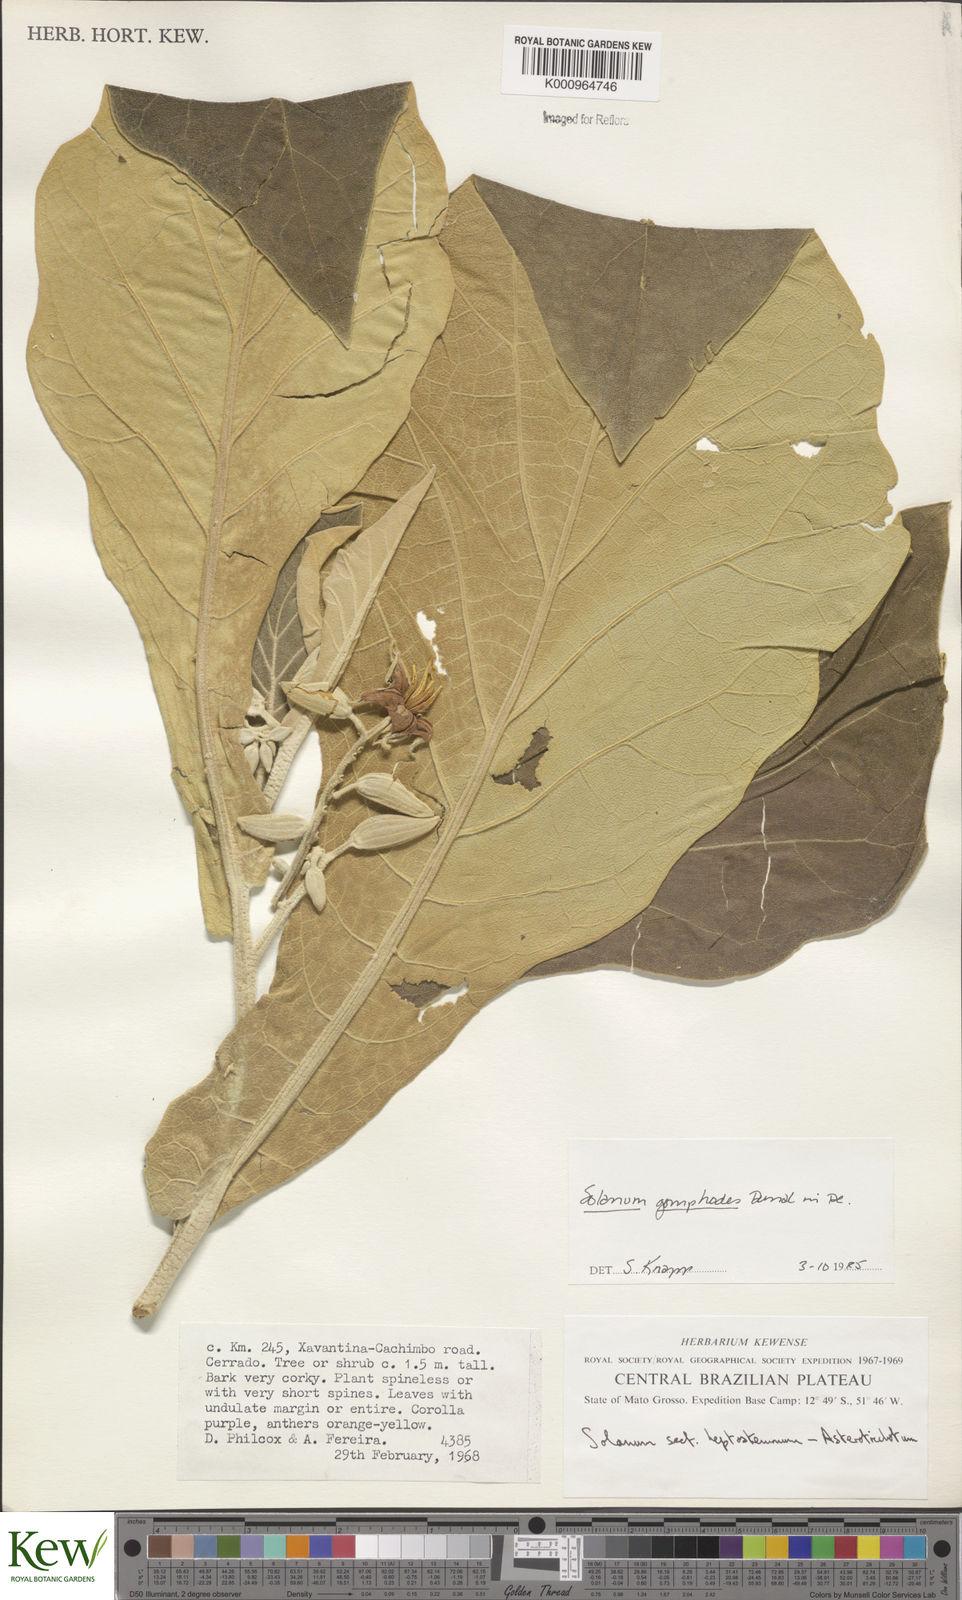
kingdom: Plantae
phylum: Tracheophyta
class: Magnoliopsida
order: Solanales
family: Solanaceae
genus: Solanum
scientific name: Solanum gomphodes
